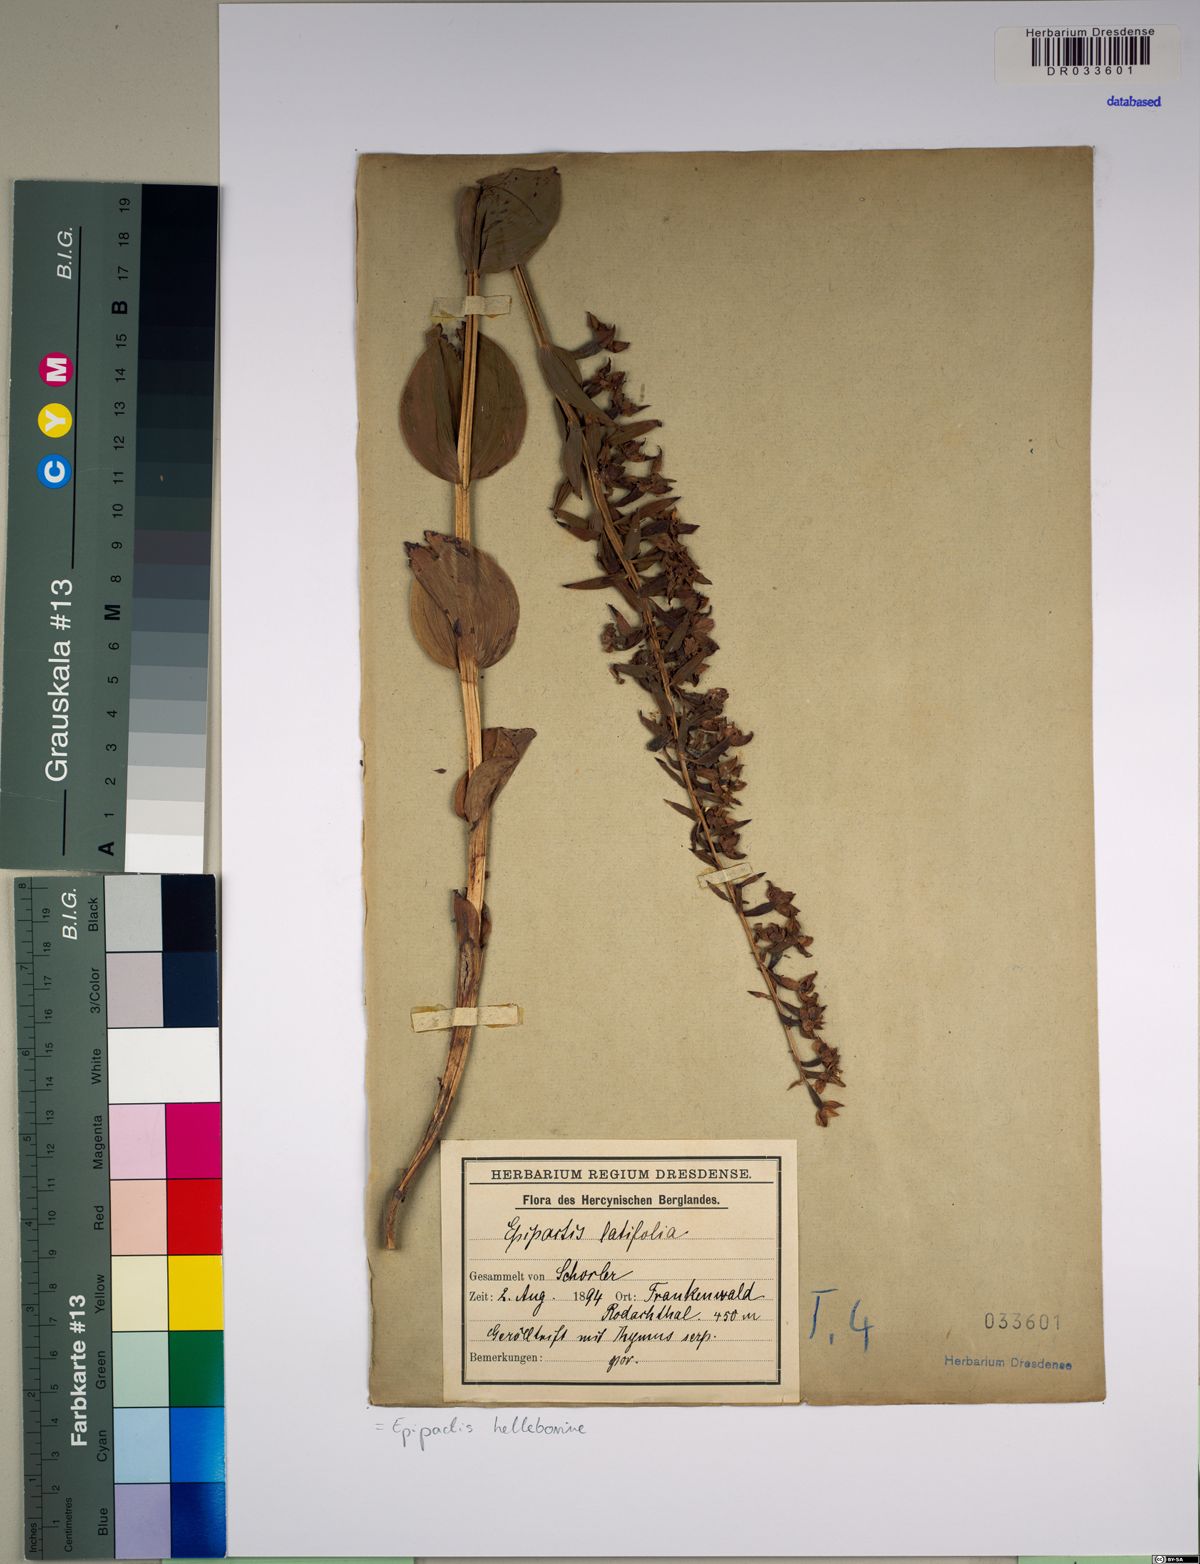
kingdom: Plantae
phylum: Tracheophyta
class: Liliopsida
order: Asparagales
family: Orchidaceae
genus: Epipactis
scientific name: Epipactis helleborine
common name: Broad-leaved helleborine
